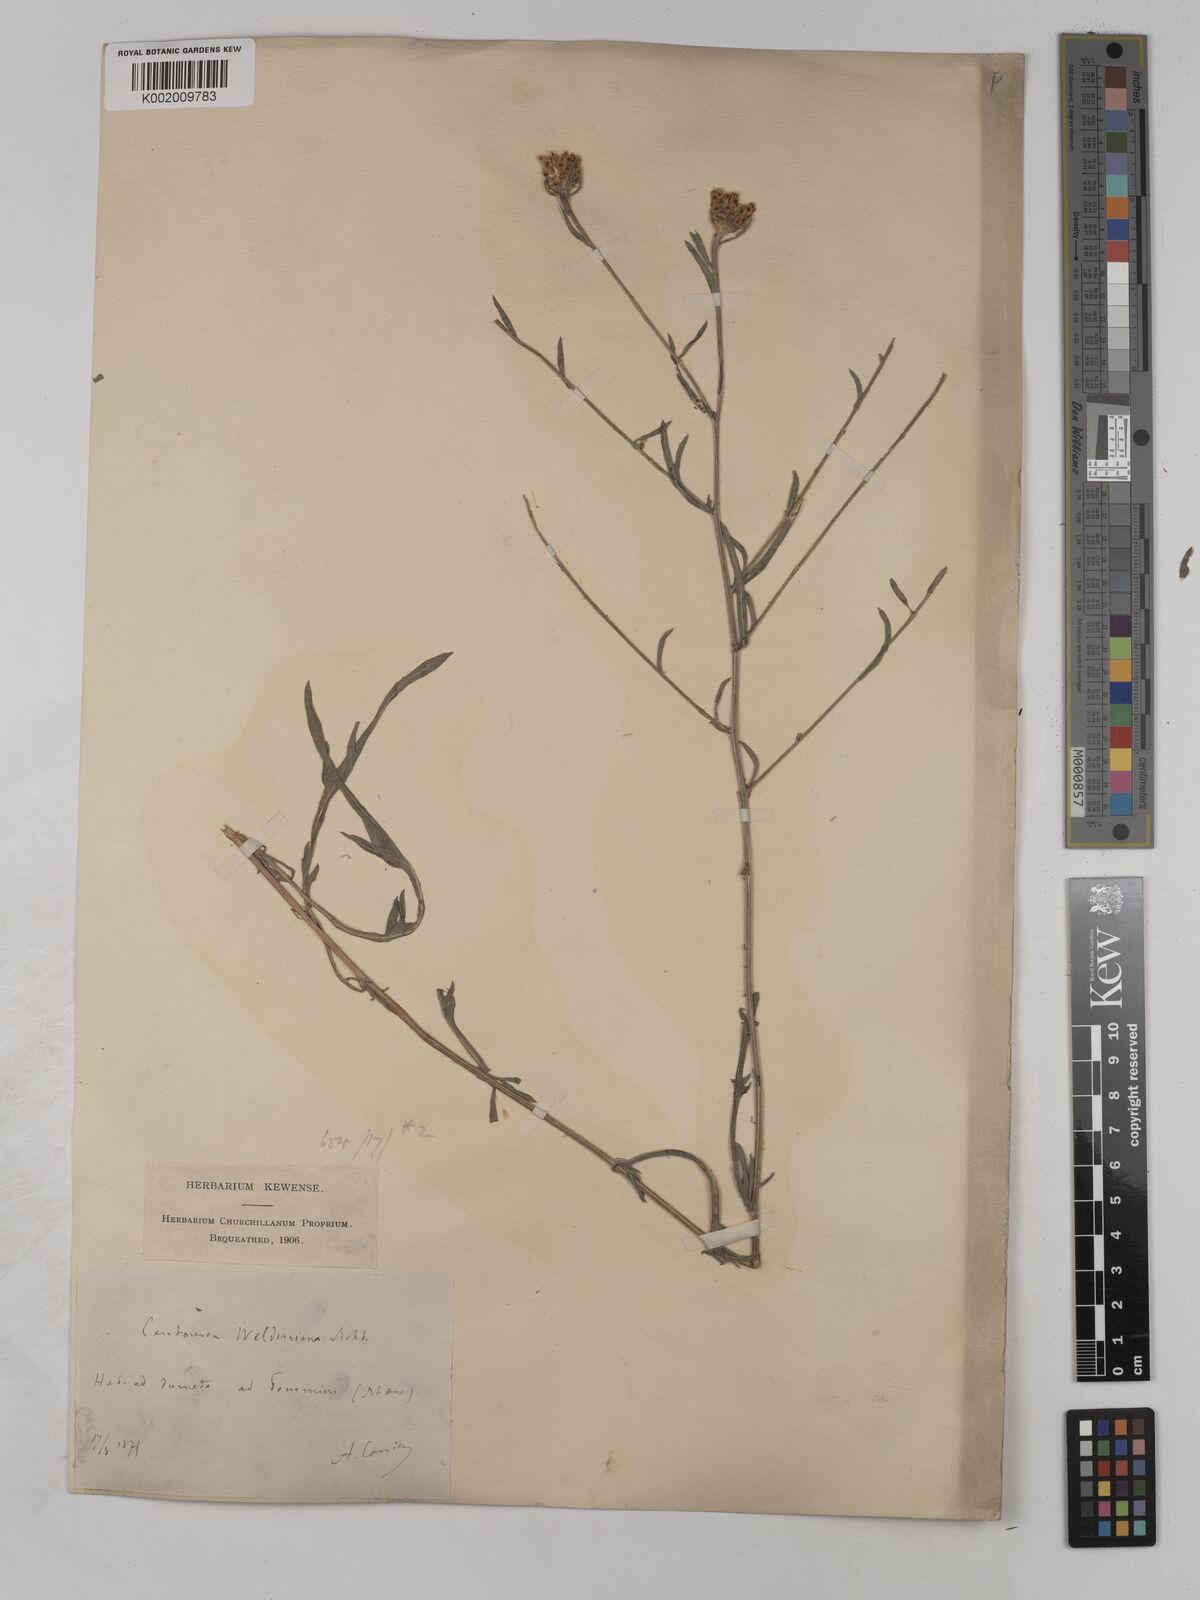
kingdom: Plantae
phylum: Tracheophyta
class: Magnoliopsida
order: Asterales
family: Asteraceae
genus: Centaurea
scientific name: Centaurea timbalii
